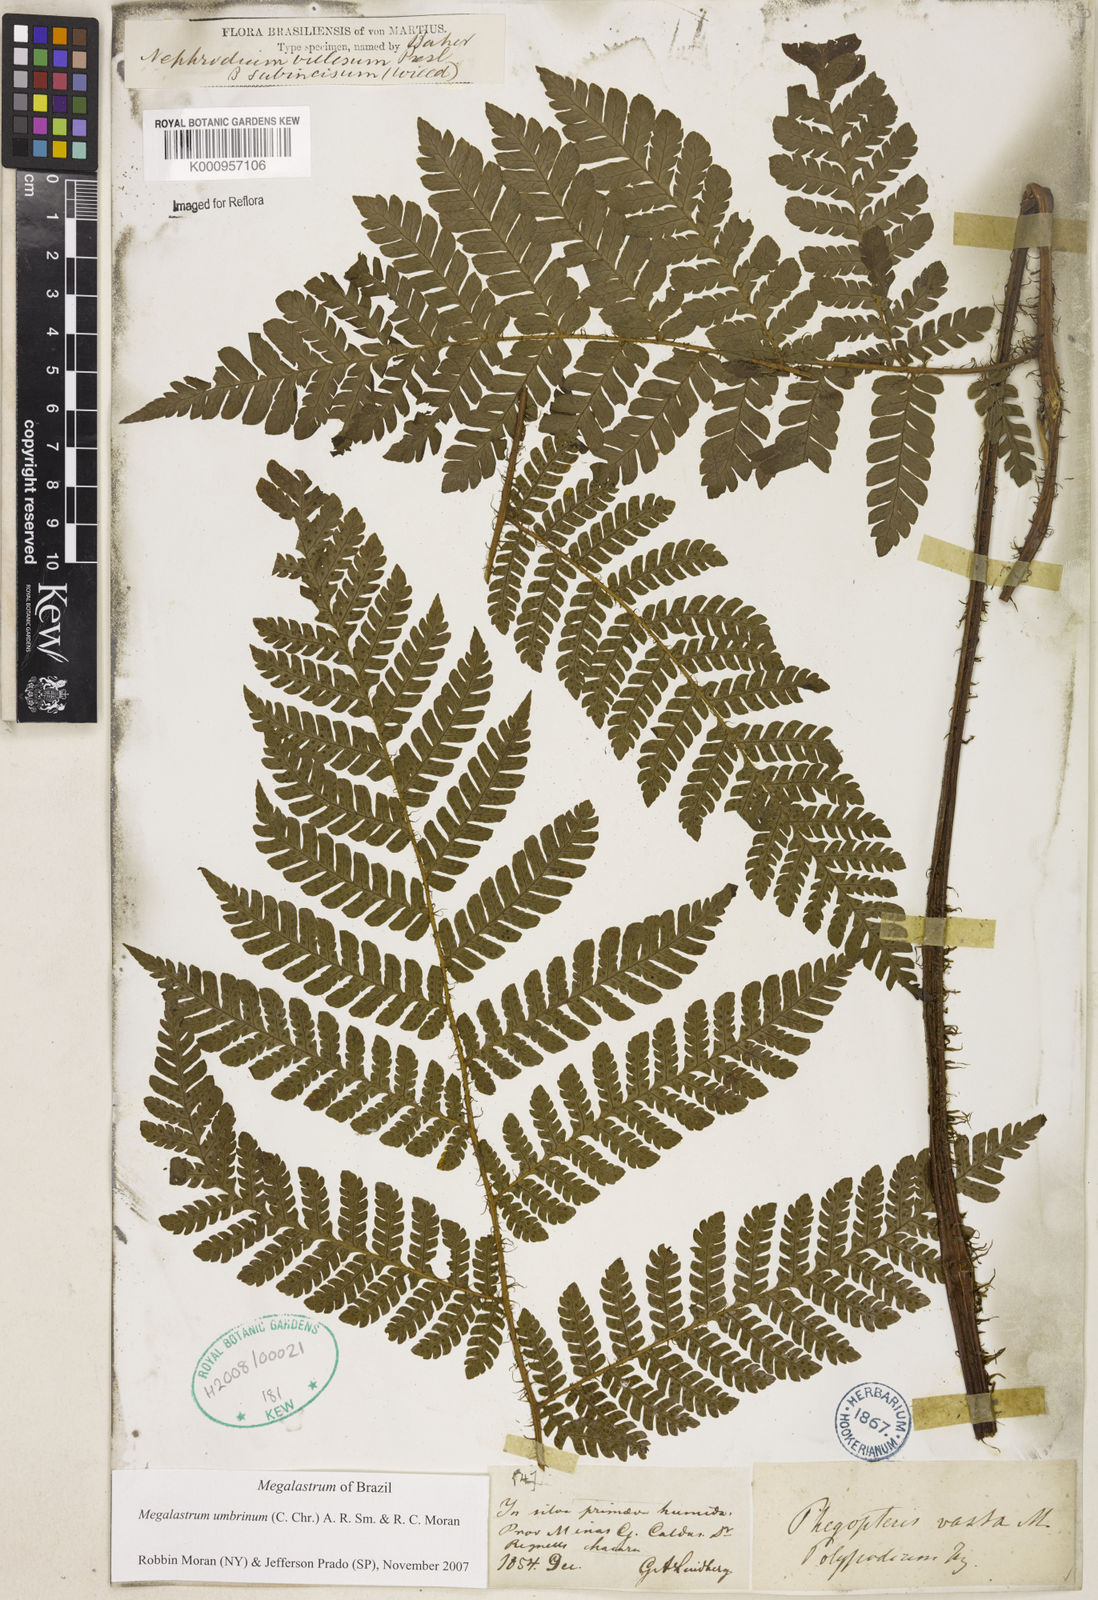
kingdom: Plantae
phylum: Tracheophyta
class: Polypodiopsida
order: Polypodiales
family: Dryopteridaceae
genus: Megalastrum
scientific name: Megalastrum umbrinum
